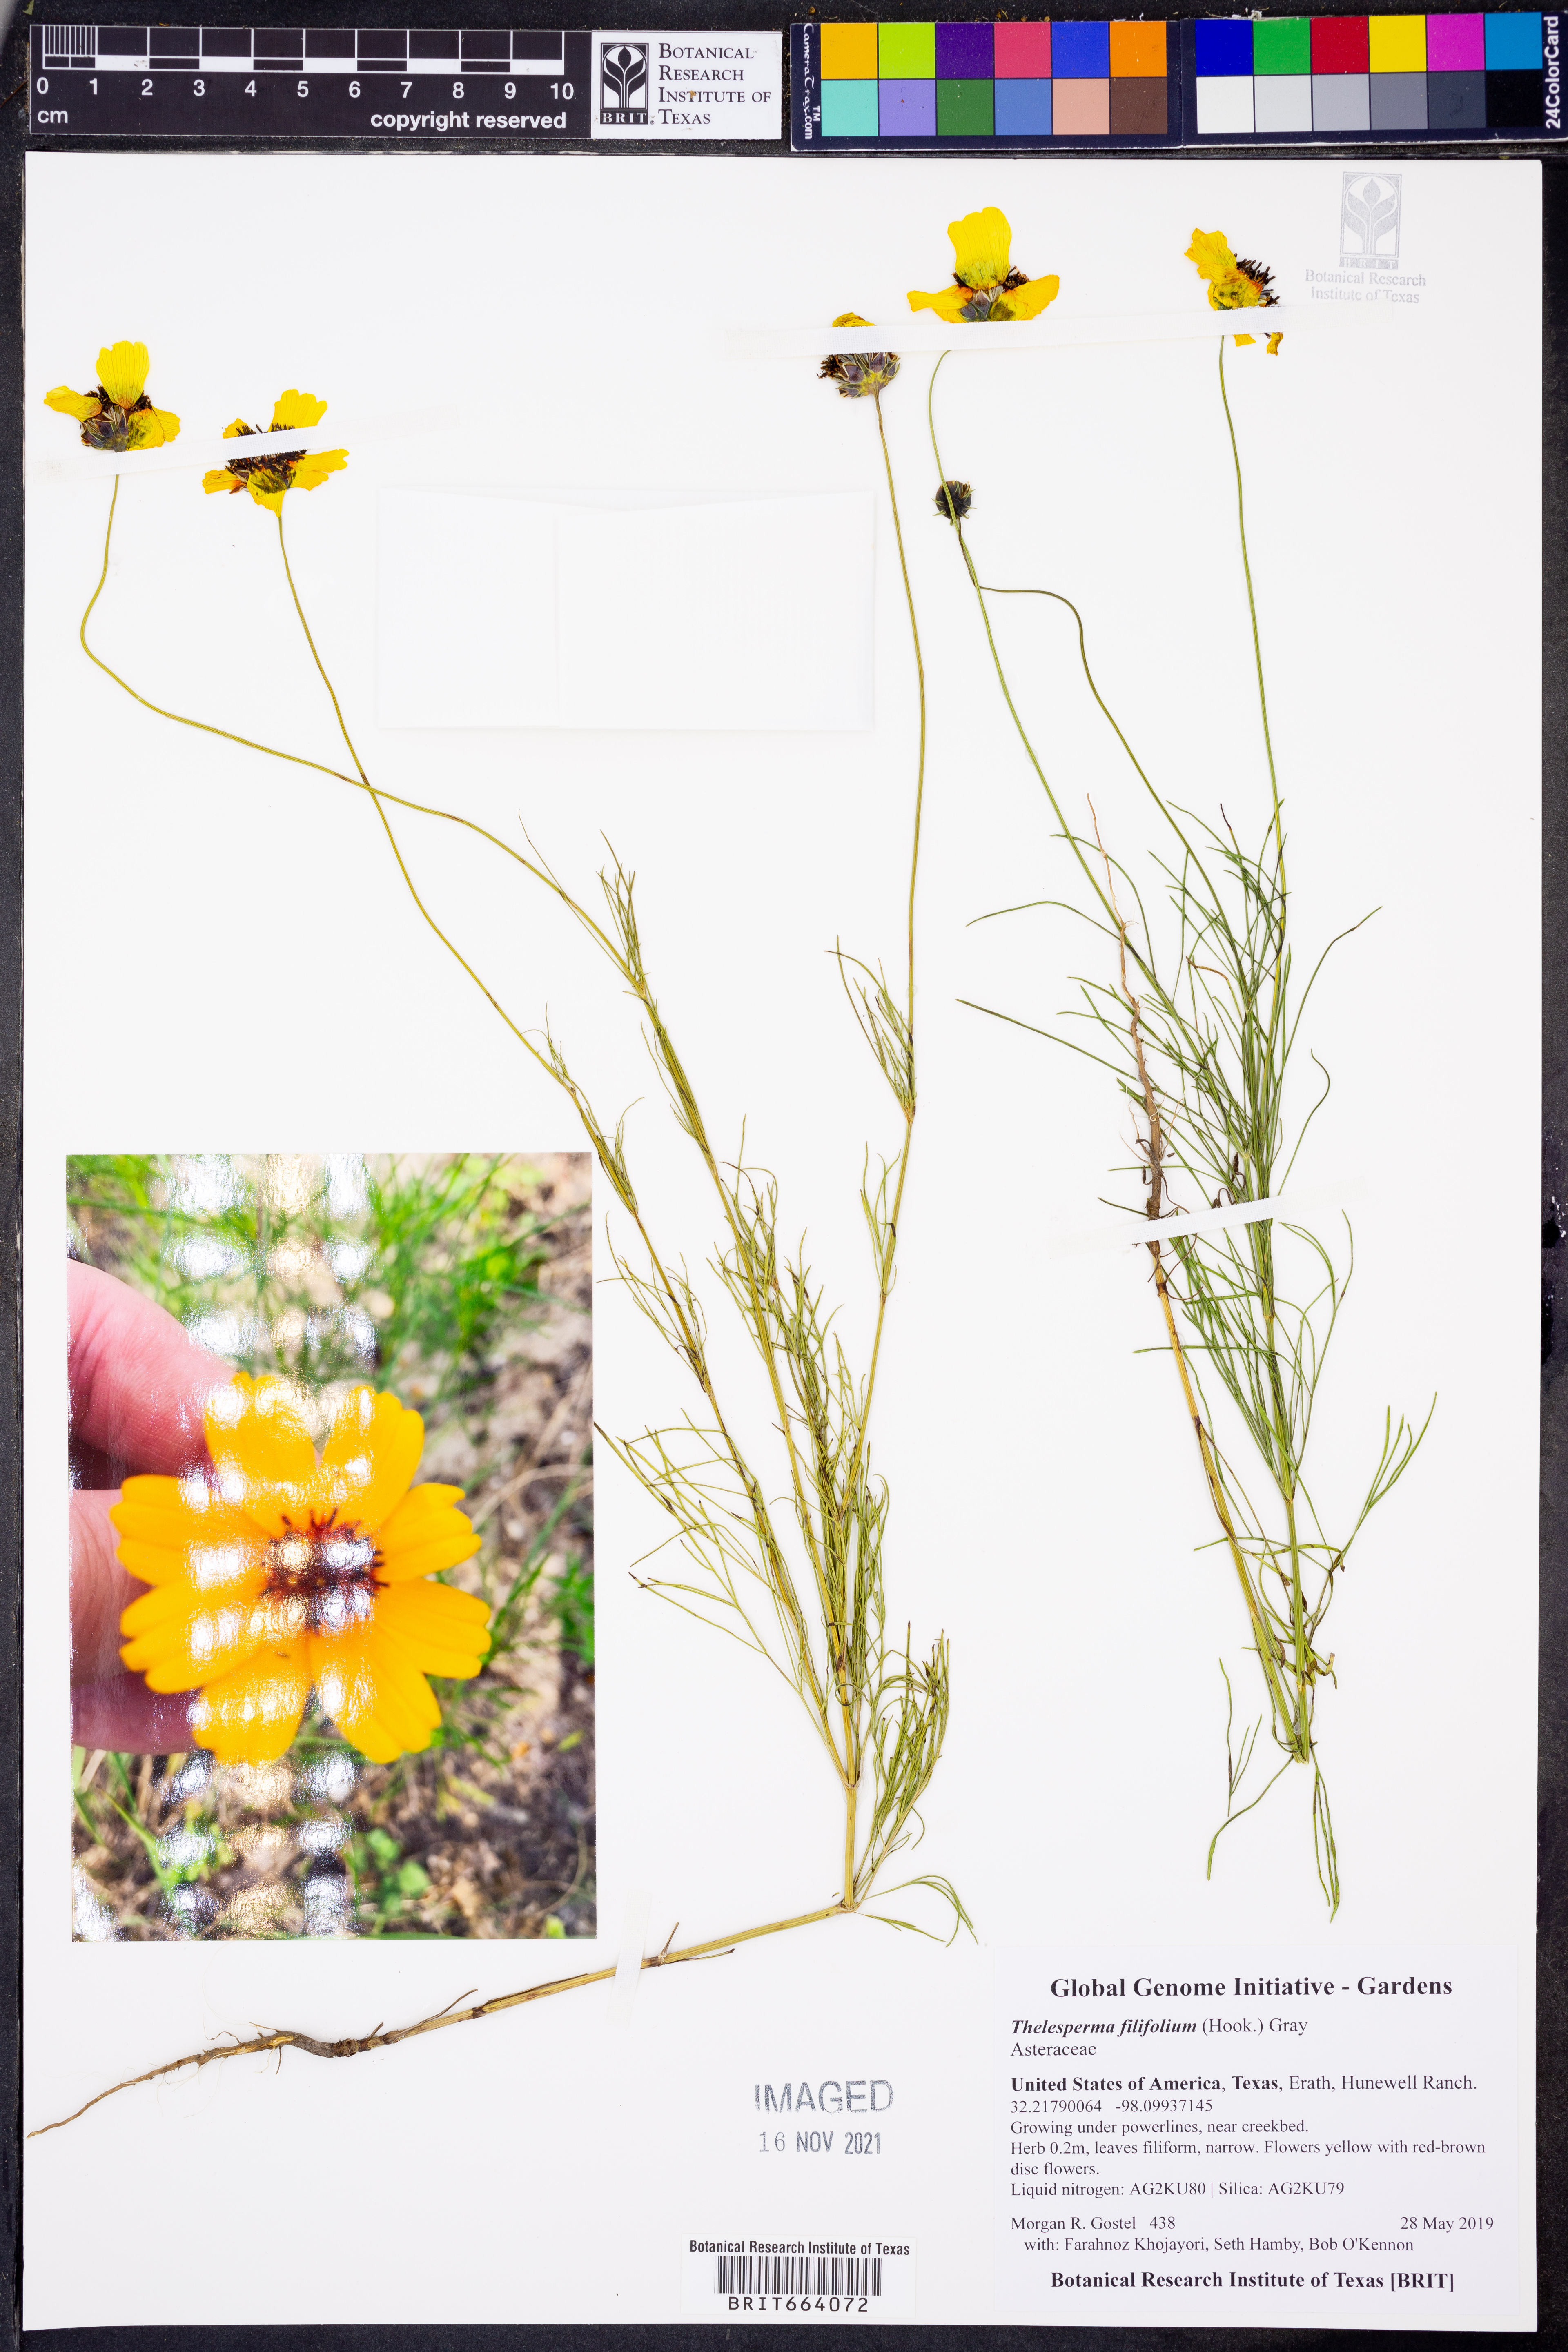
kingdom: Plantae
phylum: Tracheophyta
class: Magnoliopsida
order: Asterales
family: Asteraceae
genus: Thelesperma
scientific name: Thelesperma filifolium
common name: Stiff greenthread
